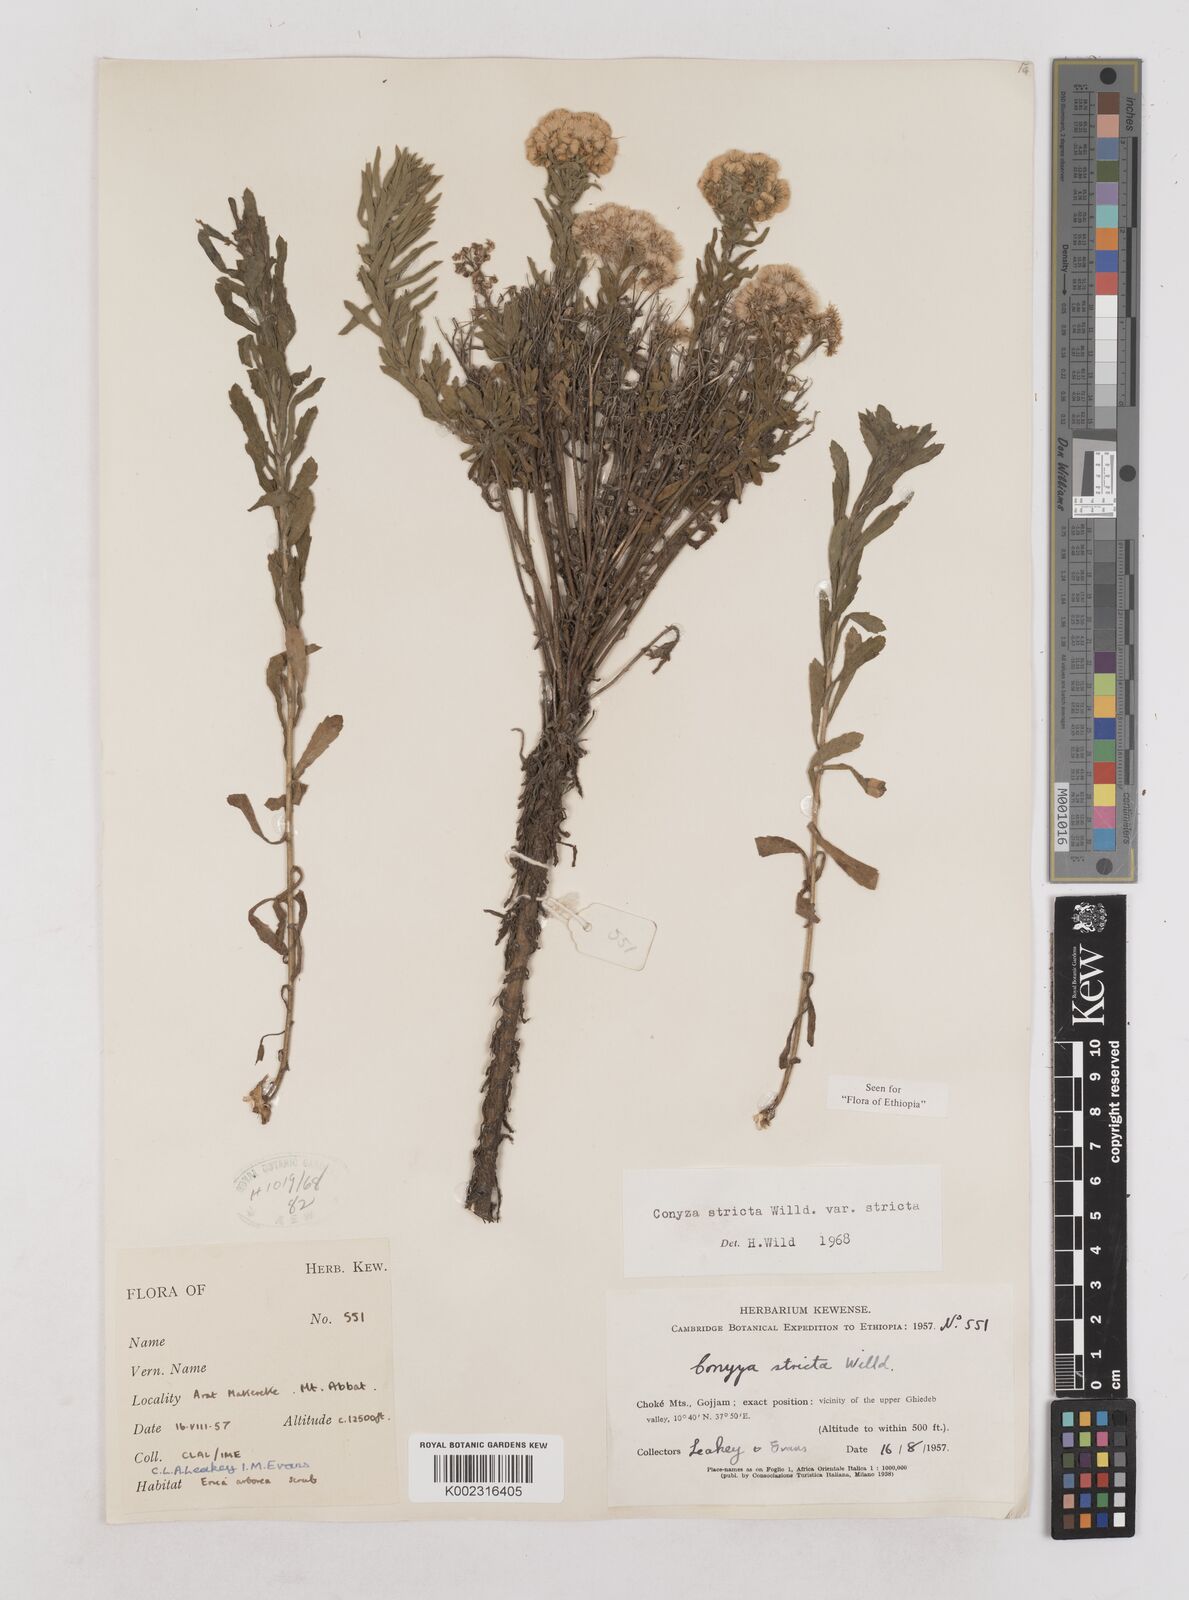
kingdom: Plantae
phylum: Tracheophyta
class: Magnoliopsida
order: Asterales
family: Asteraceae
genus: Nidorella
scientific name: Nidorella triloba
